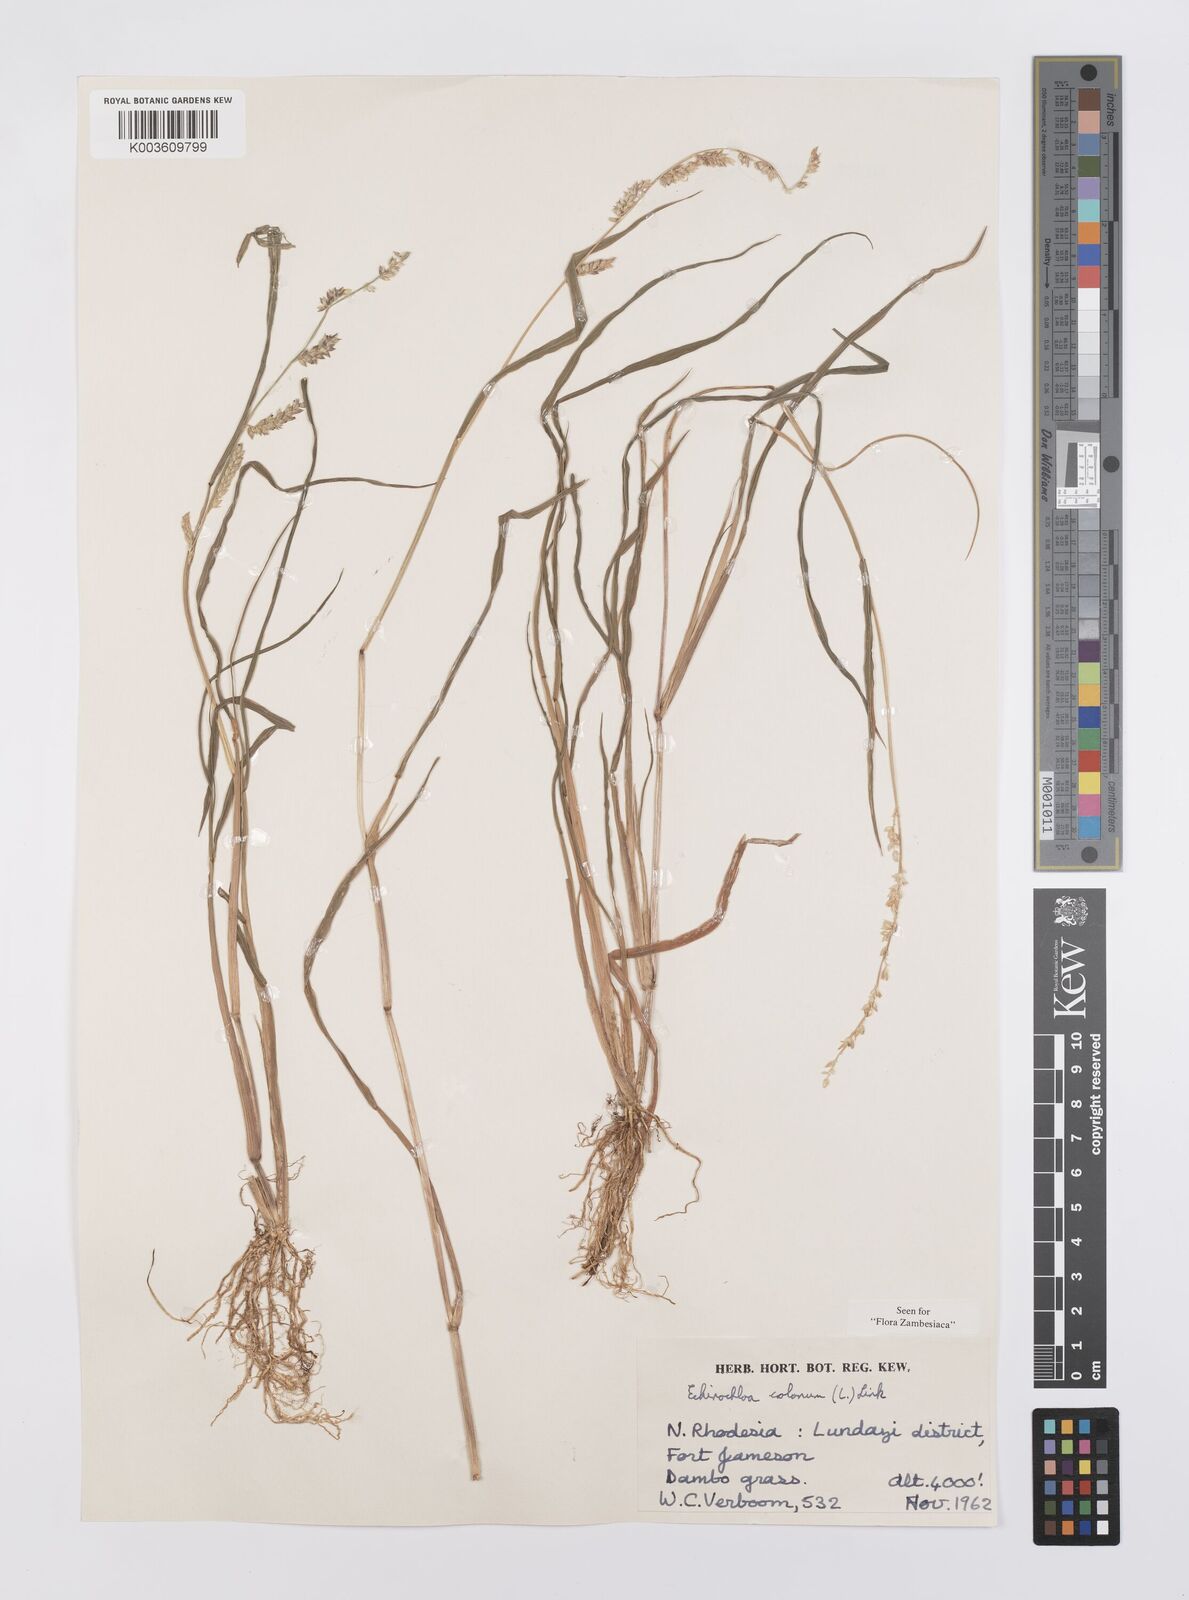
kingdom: Plantae
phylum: Tracheophyta
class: Liliopsida
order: Poales
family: Poaceae
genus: Echinochloa
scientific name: Echinochloa colonum
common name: Jungle rice
